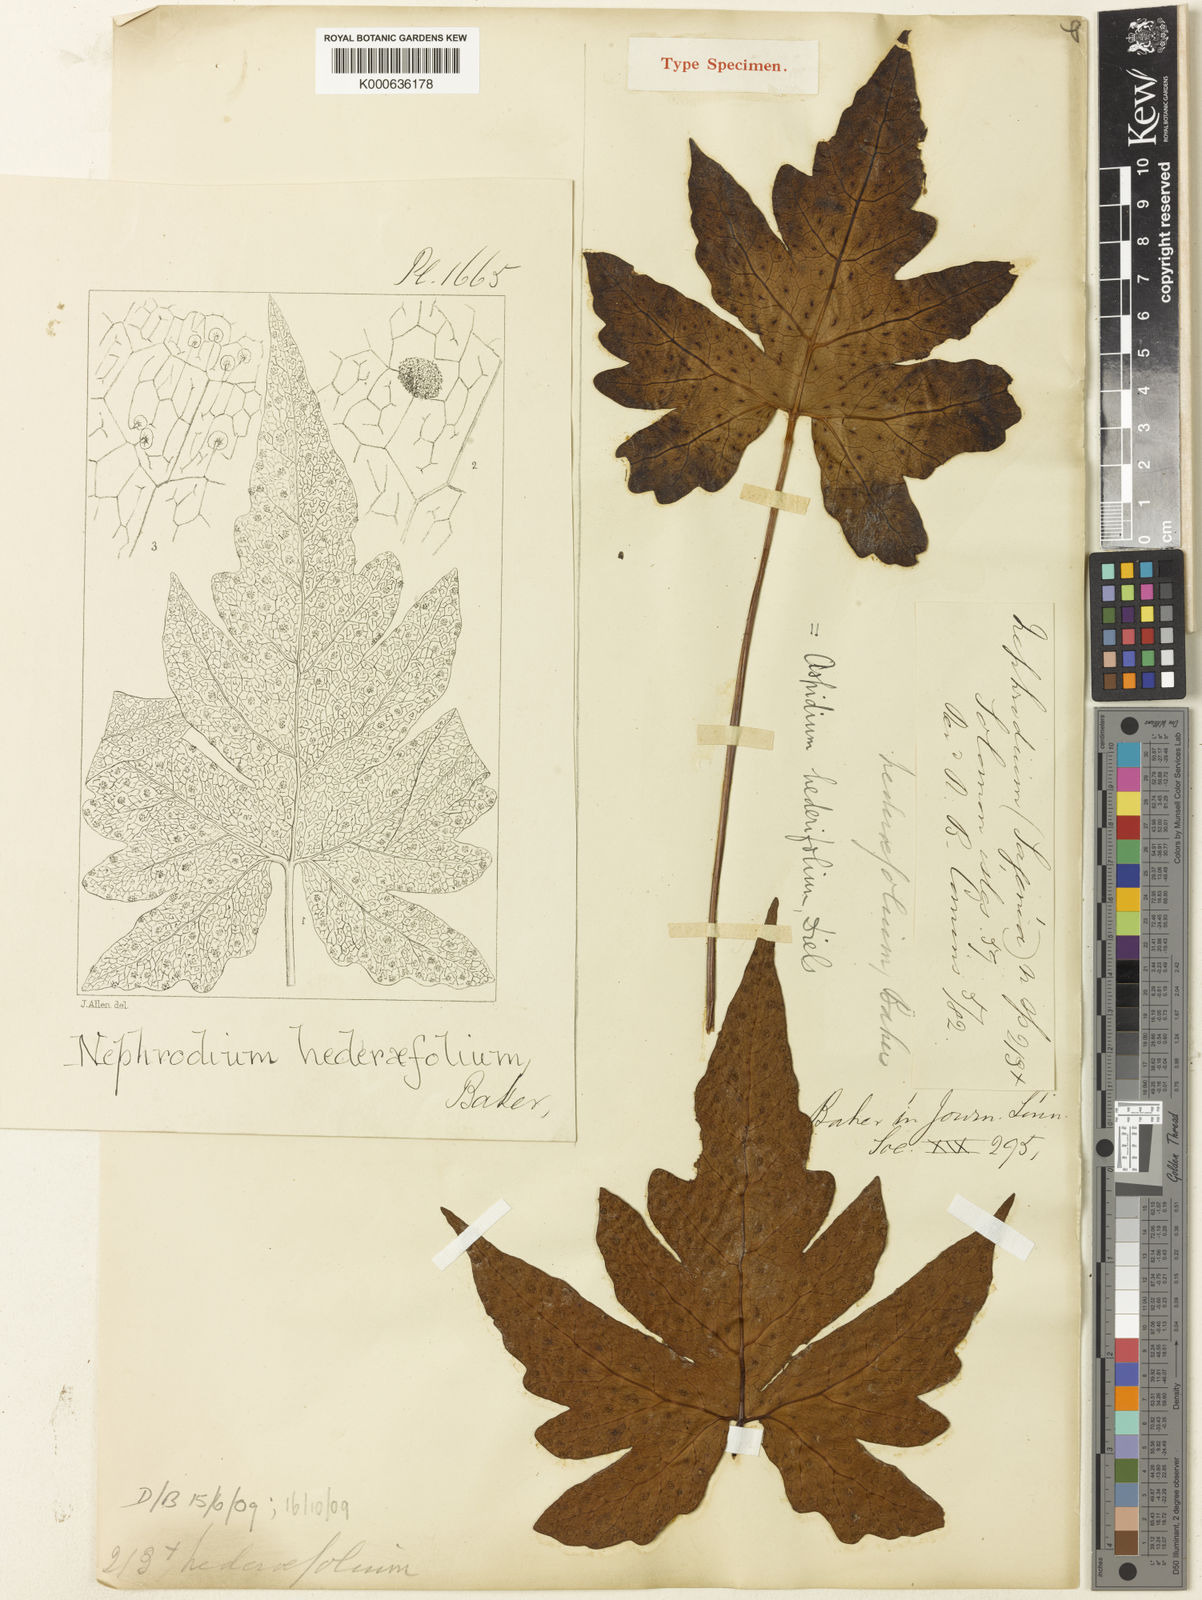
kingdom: Plantae
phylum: Tracheophyta
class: Polypodiopsida
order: Polypodiales
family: Dryopteridaceae
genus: Nephrodium
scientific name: Nephrodium
